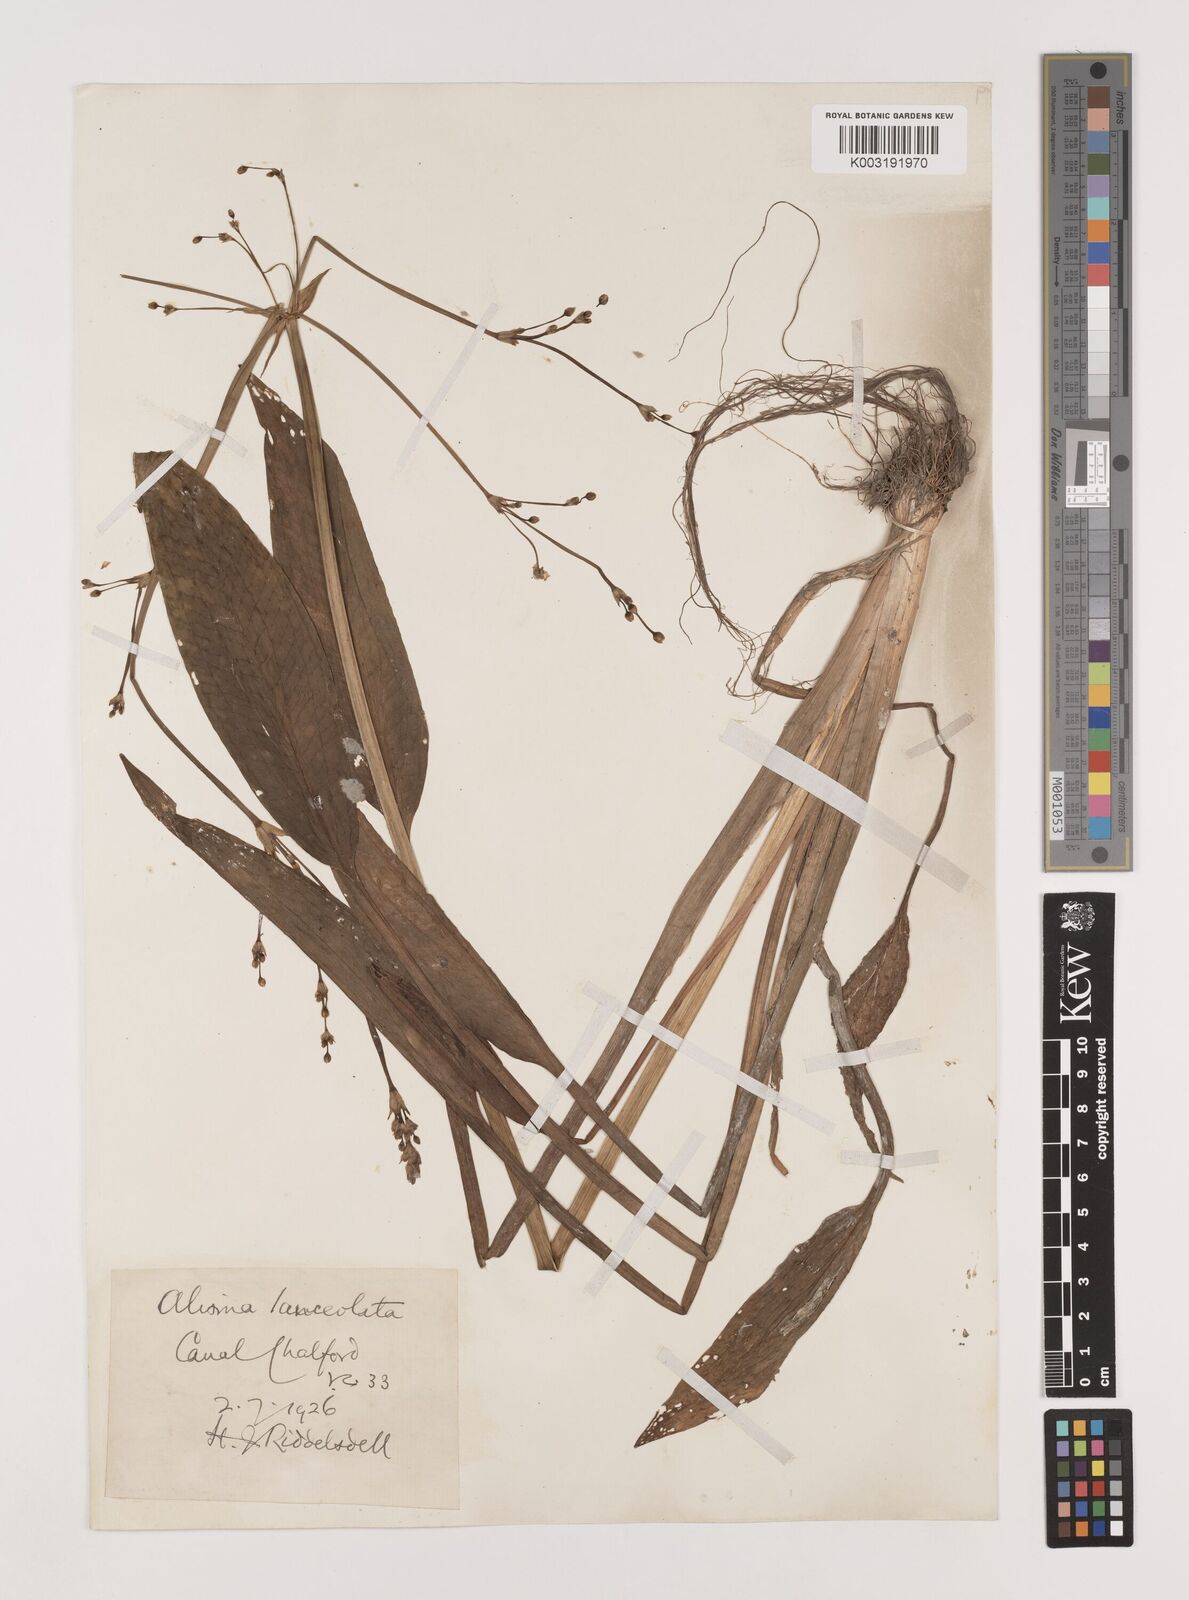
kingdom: Plantae
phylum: Tracheophyta
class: Liliopsida
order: Alismatales
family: Alismataceae
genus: Alisma
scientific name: Alisma lanceolatum
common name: Narrow-leaved water-plantain
